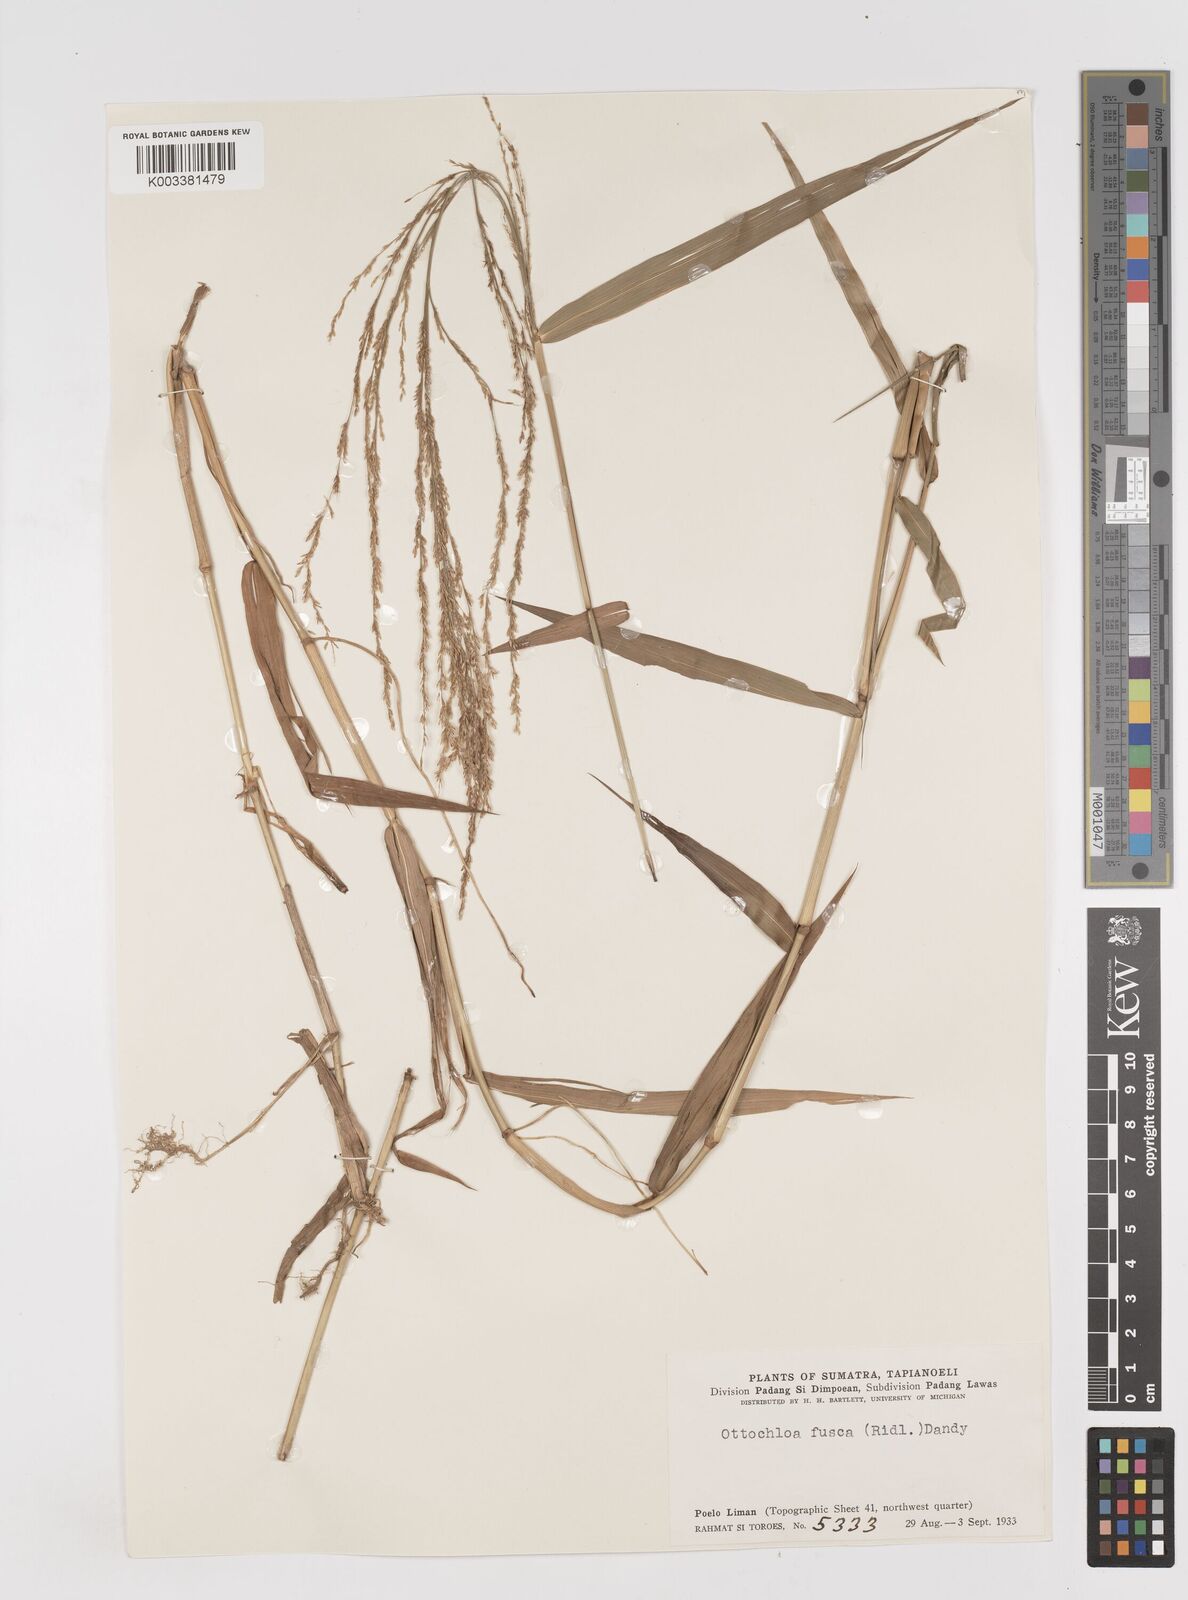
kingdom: Plantae
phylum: Tracheophyta
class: Liliopsida
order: Poales
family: Poaceae
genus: Ottochloa
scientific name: Ottochloa nodosa
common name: Slender-panic grass
